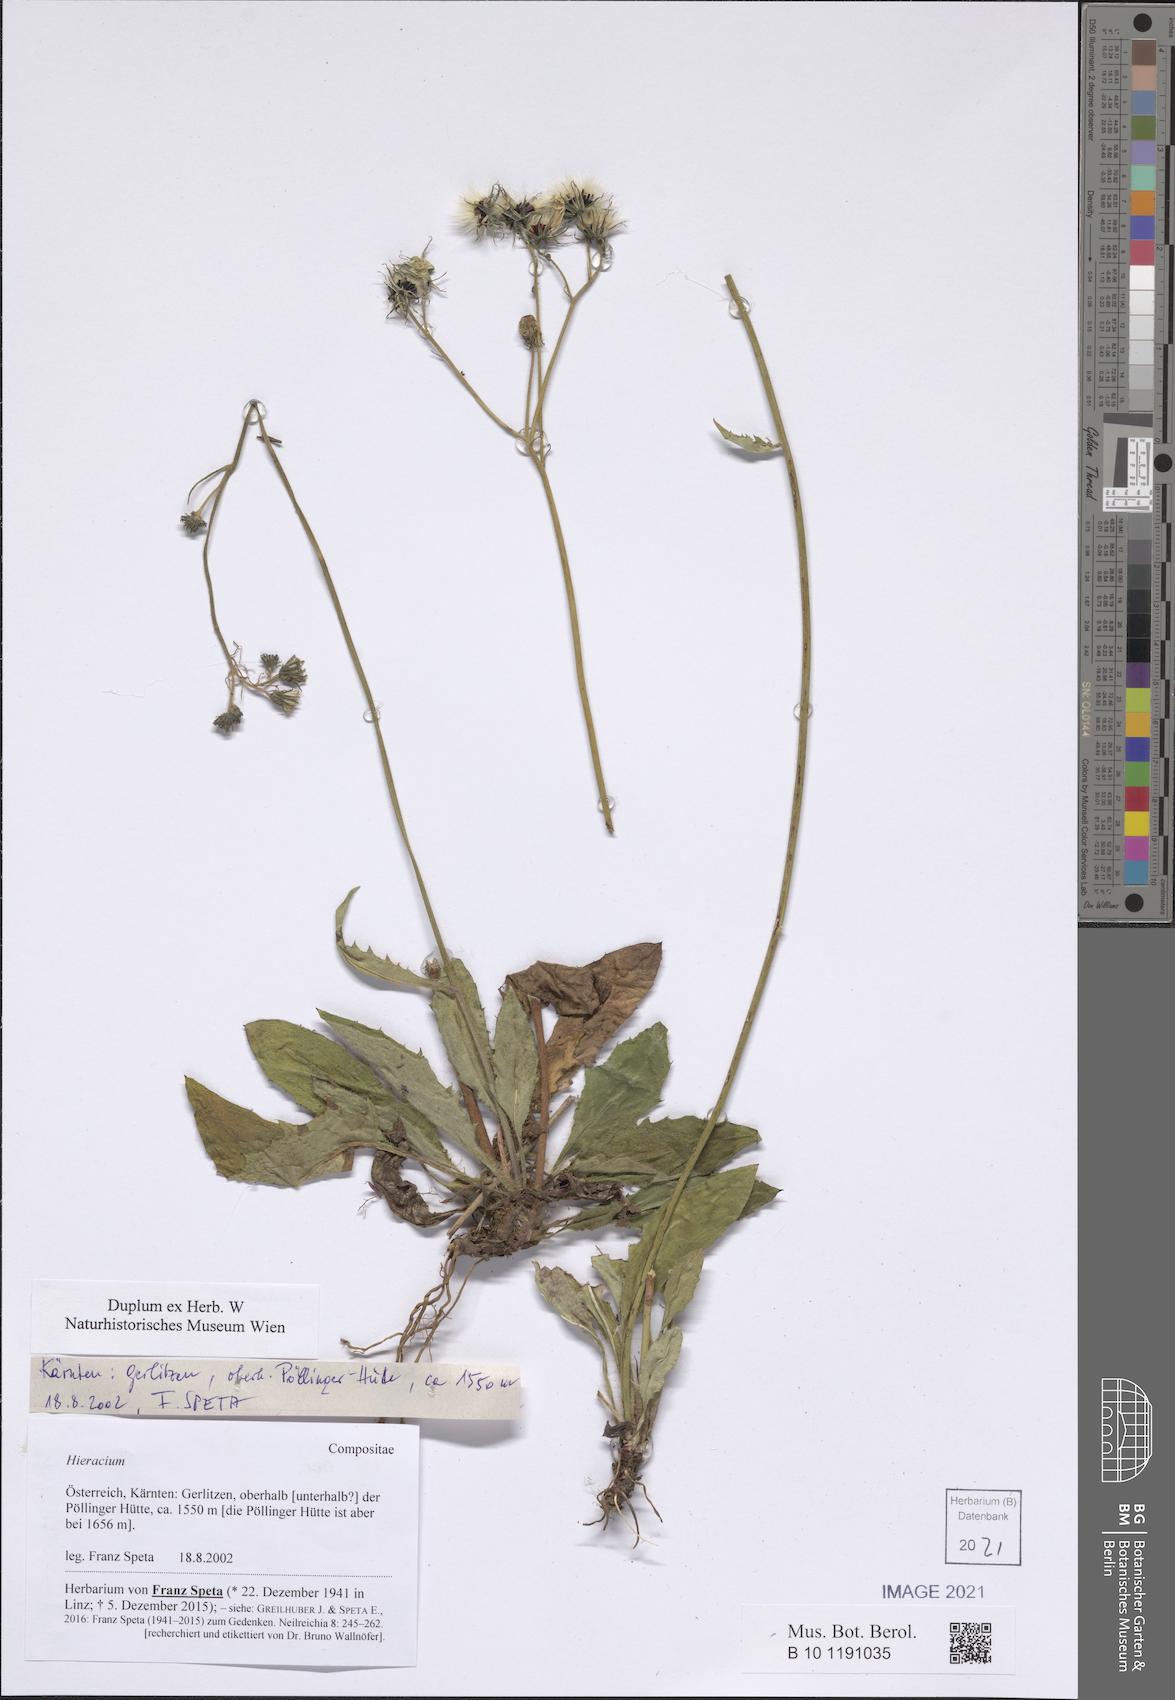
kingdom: Plantae
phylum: Tracheophyta
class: Magnoliopsida
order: Asterales
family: Asteraceae
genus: Hieracium
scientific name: Hieracium
